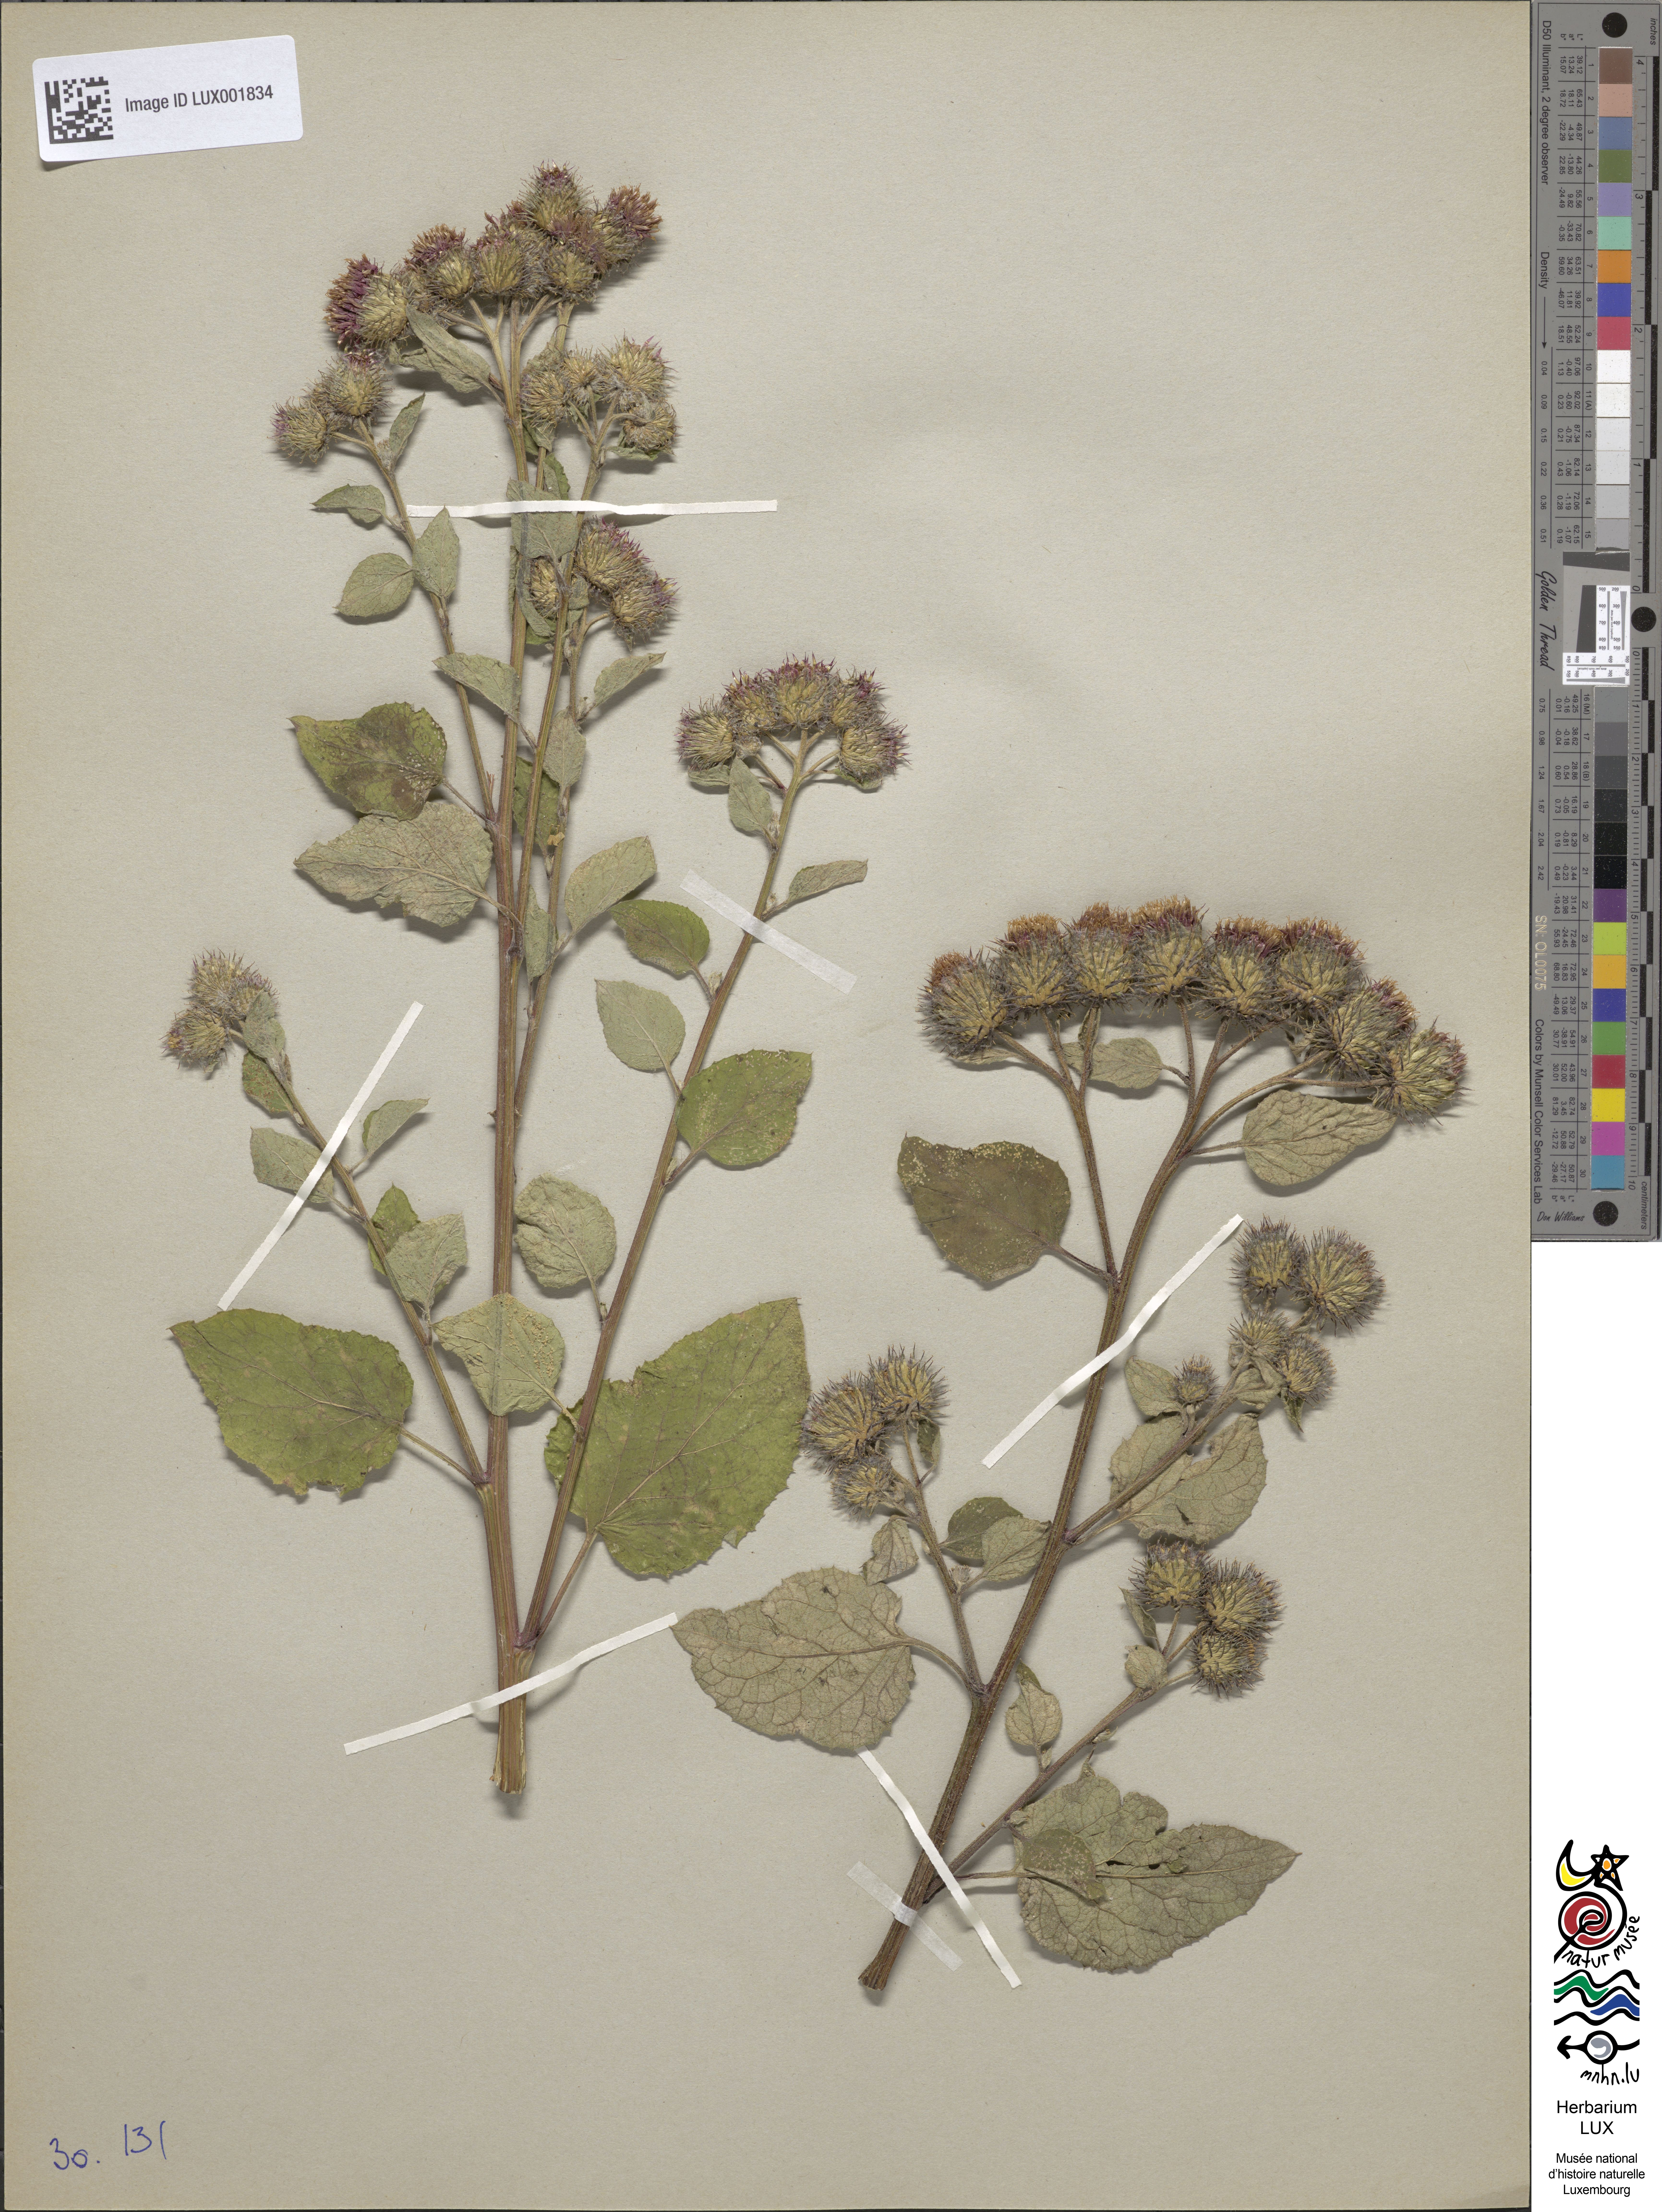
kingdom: Plantae
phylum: Tracheophyta
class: Magnoliopsida
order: Asterales
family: Asteraceae
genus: Arctium
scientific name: Arctium tomentosum
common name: Woolly burdock
